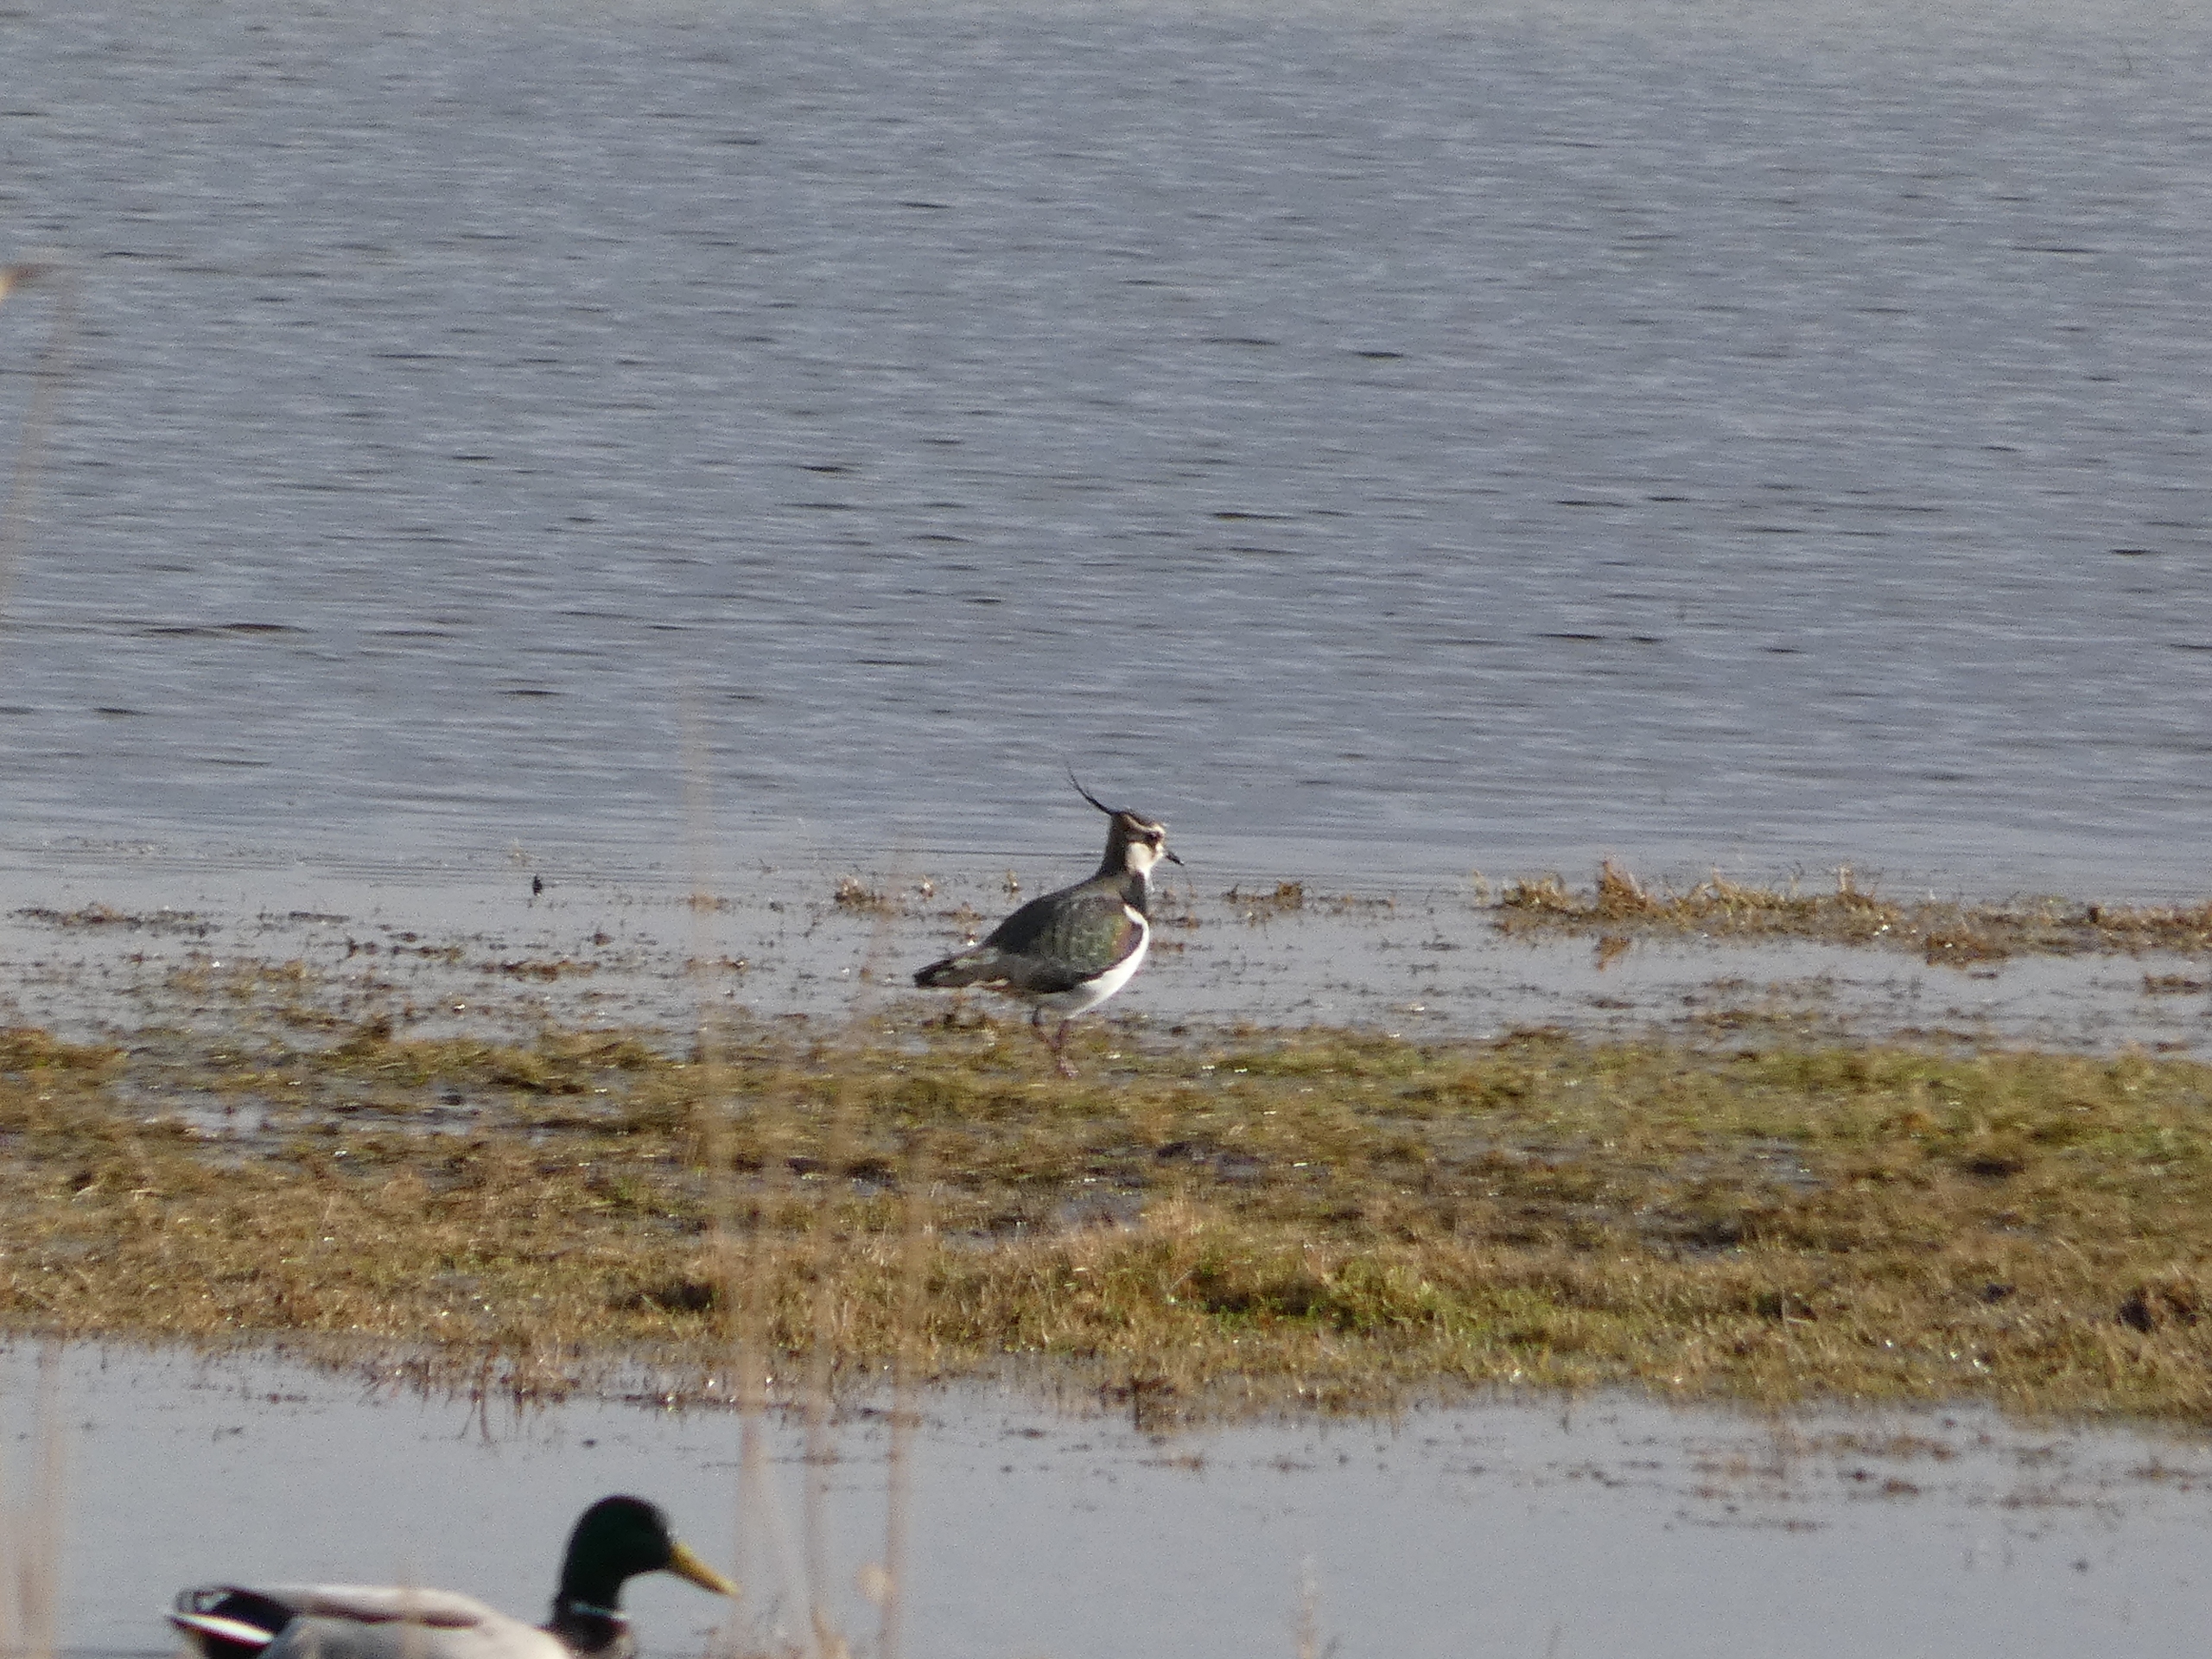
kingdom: Animalia
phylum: Chordata
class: Aves
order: Charadriiformes
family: Charadriidae
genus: Vanellus
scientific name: Vanellus vanellus
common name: Vibe
